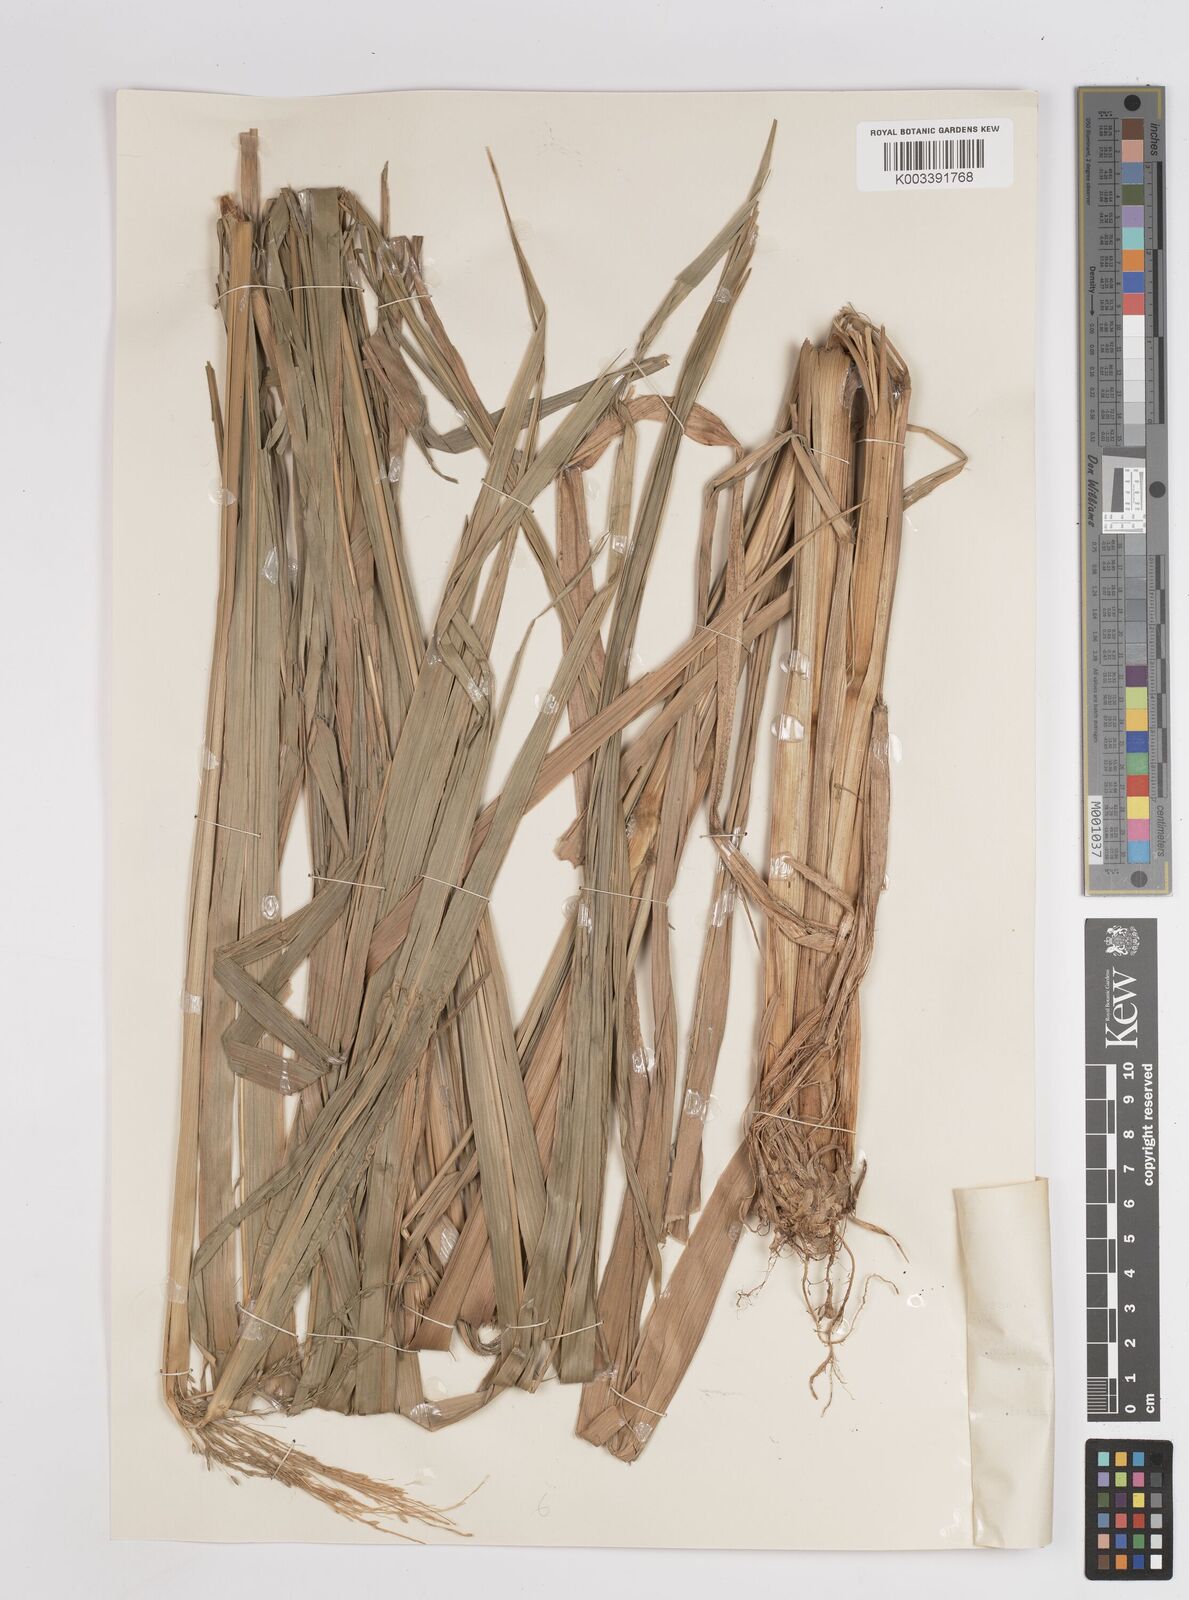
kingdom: Plantae
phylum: Tracheophyta
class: Liliopsida
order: Poales
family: Poaceae
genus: Megathyrsus
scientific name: Megathyrsus maximus
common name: Guineagrass
